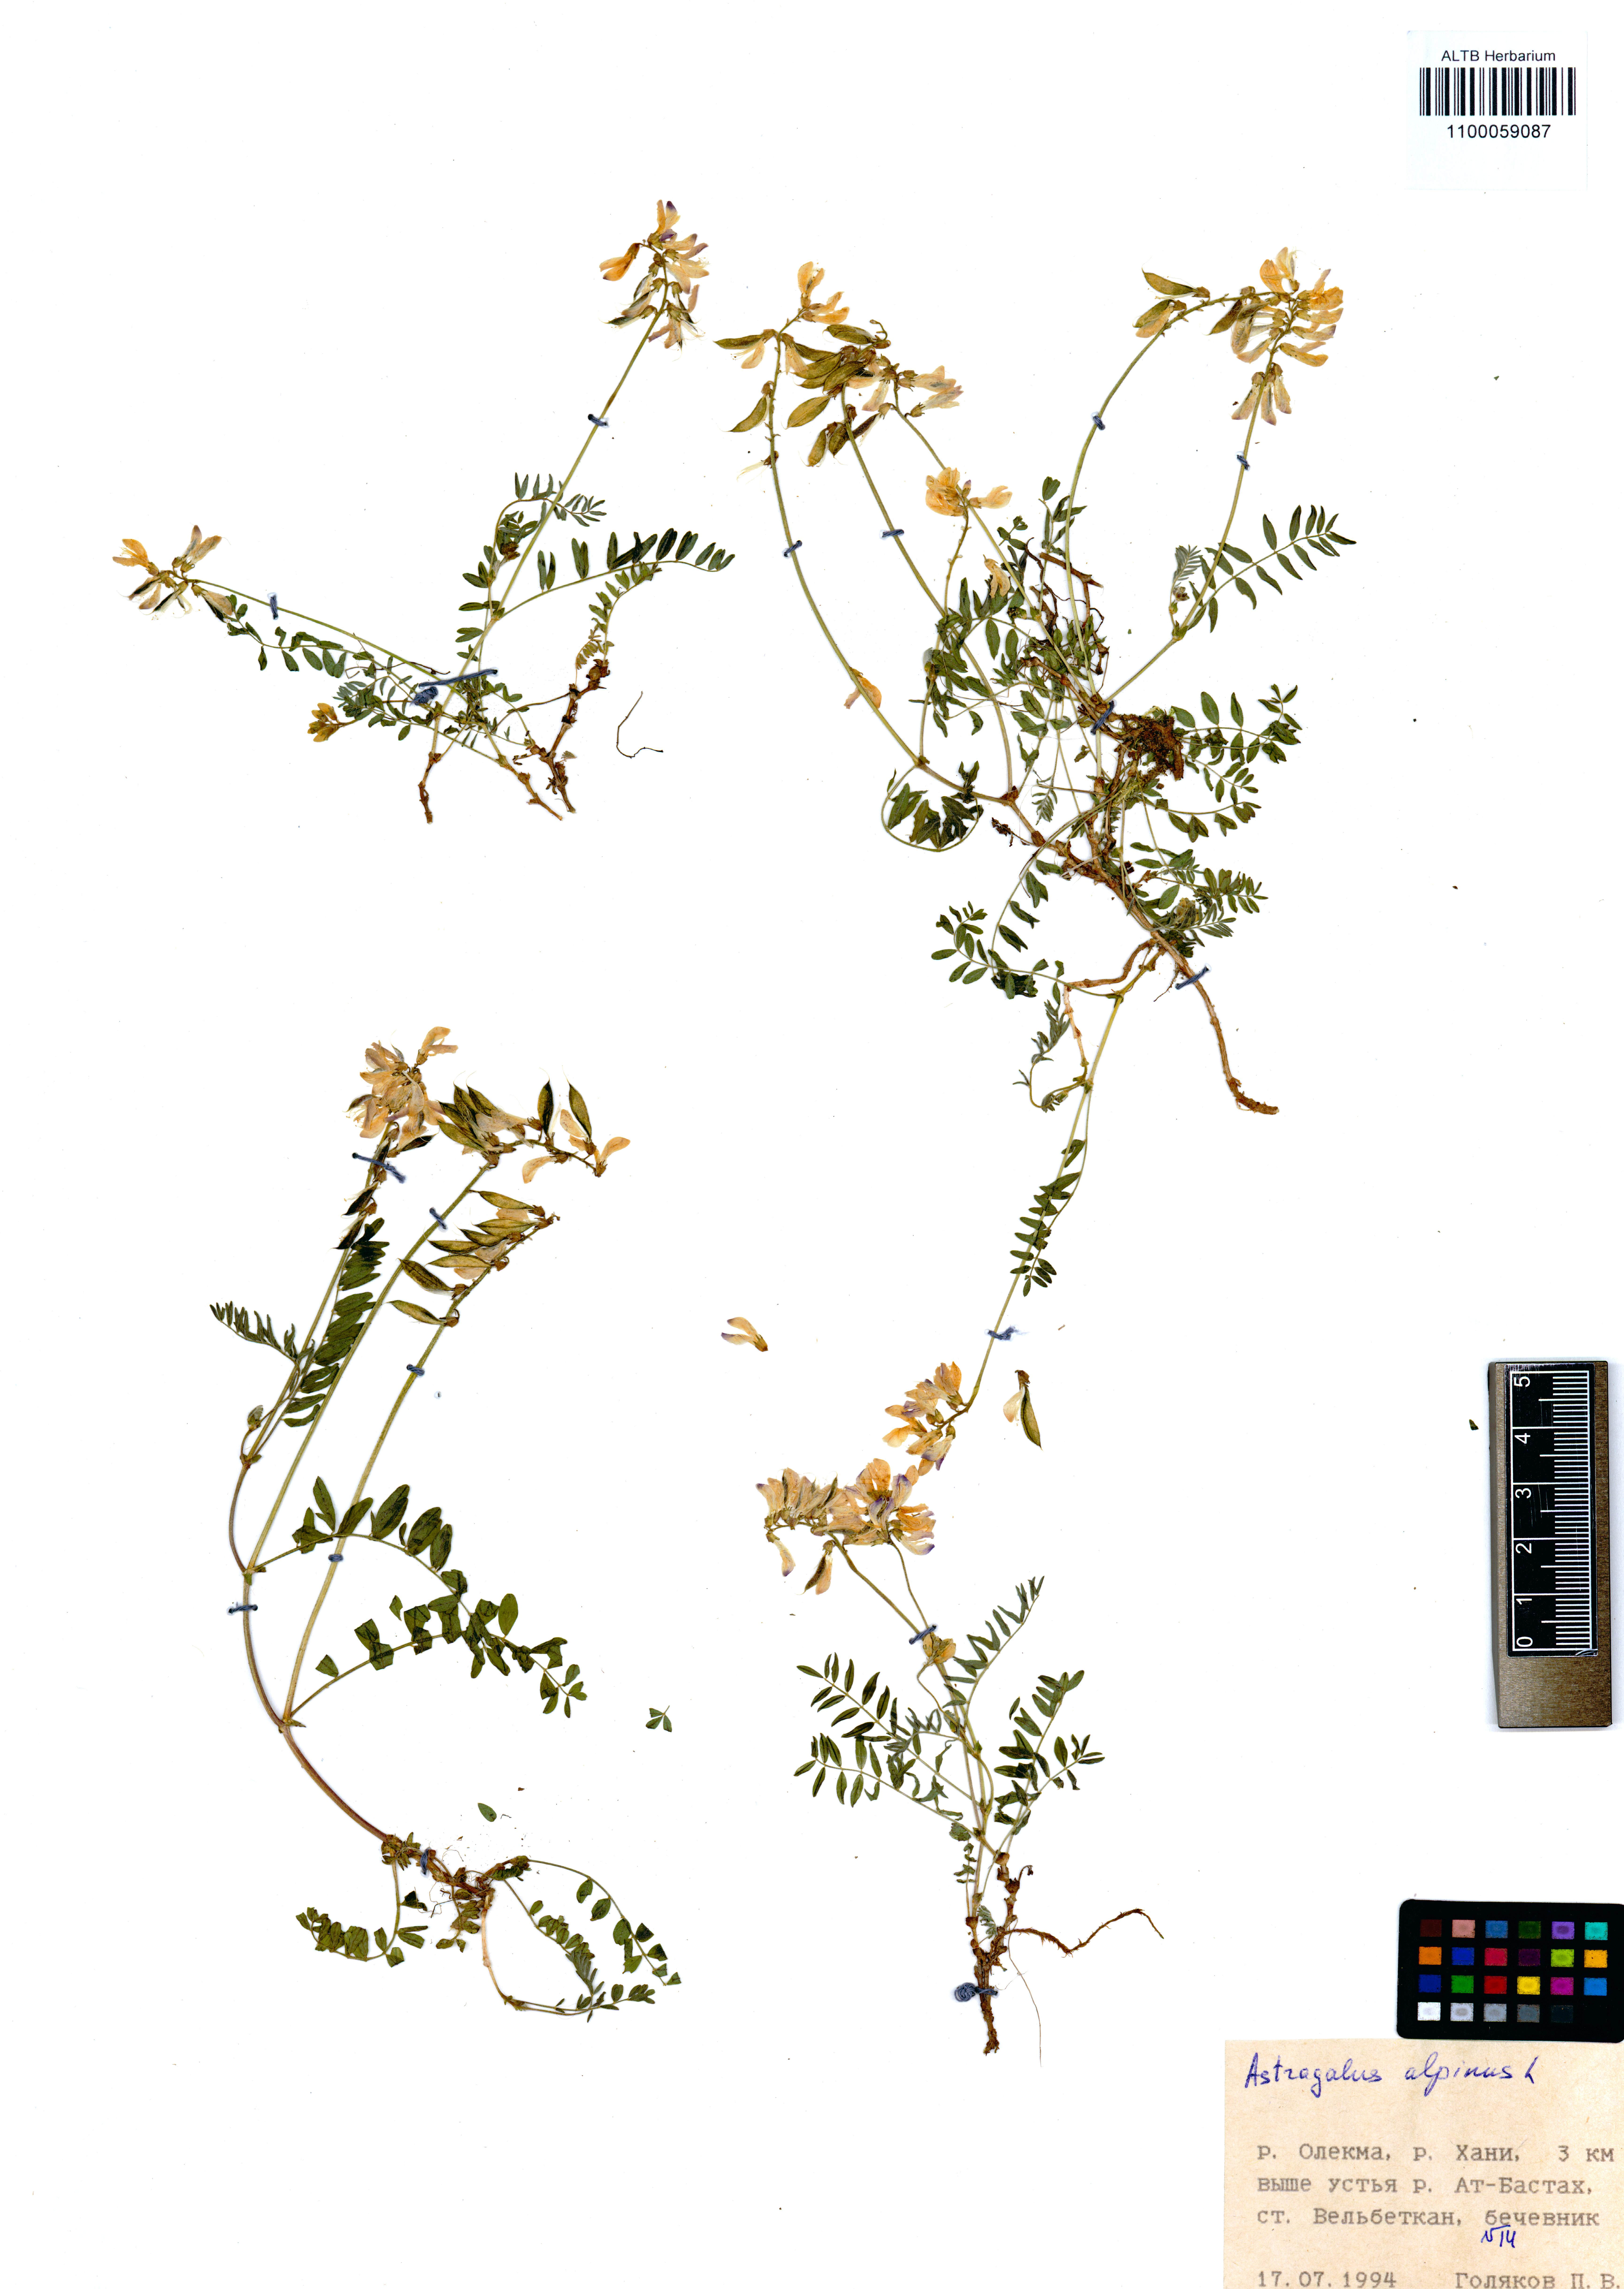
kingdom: Plantae
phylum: Tracheophyta
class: Magnoliopsida
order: Fabales
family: Fabaceae
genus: Astragalus
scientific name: Astragalus alpinus
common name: Alpine milk-vetch
